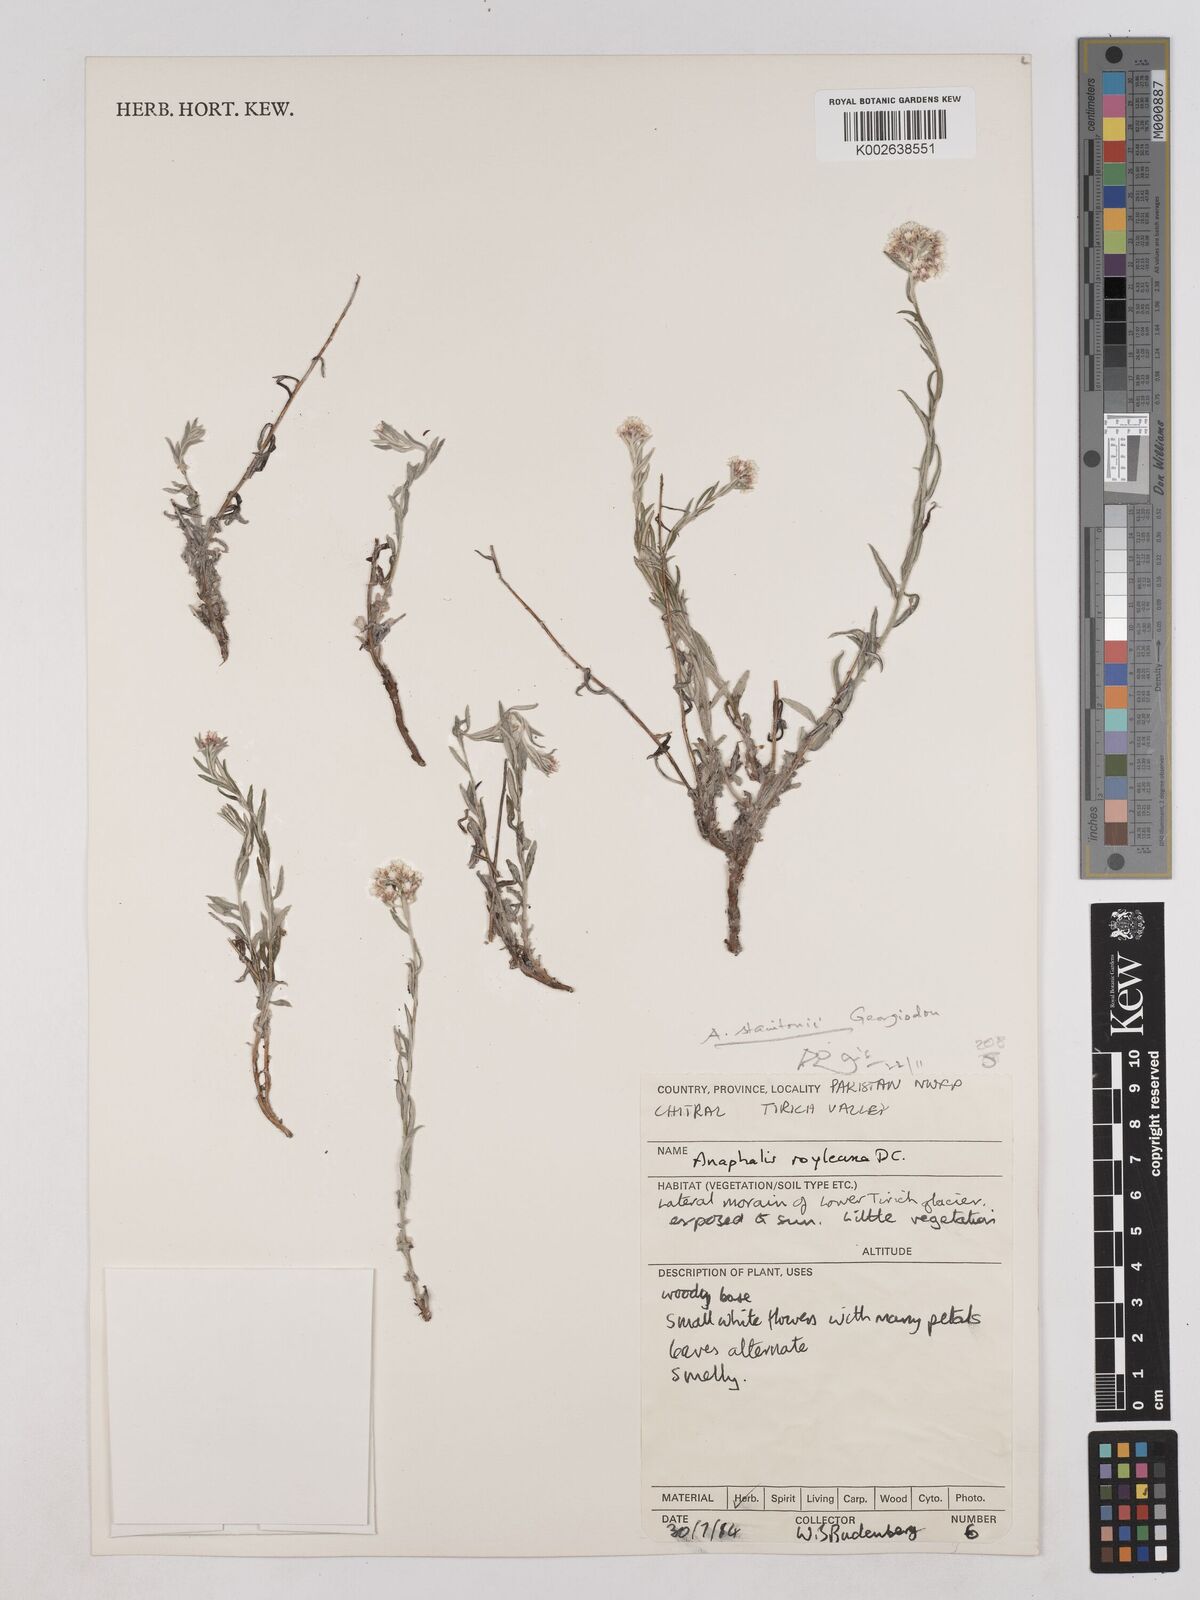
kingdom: Plantae
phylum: Tracheophyta
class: Magnoliopsida
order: Asterales
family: Asteraceae
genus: Anaphalis
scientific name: Anaphalis royleana
